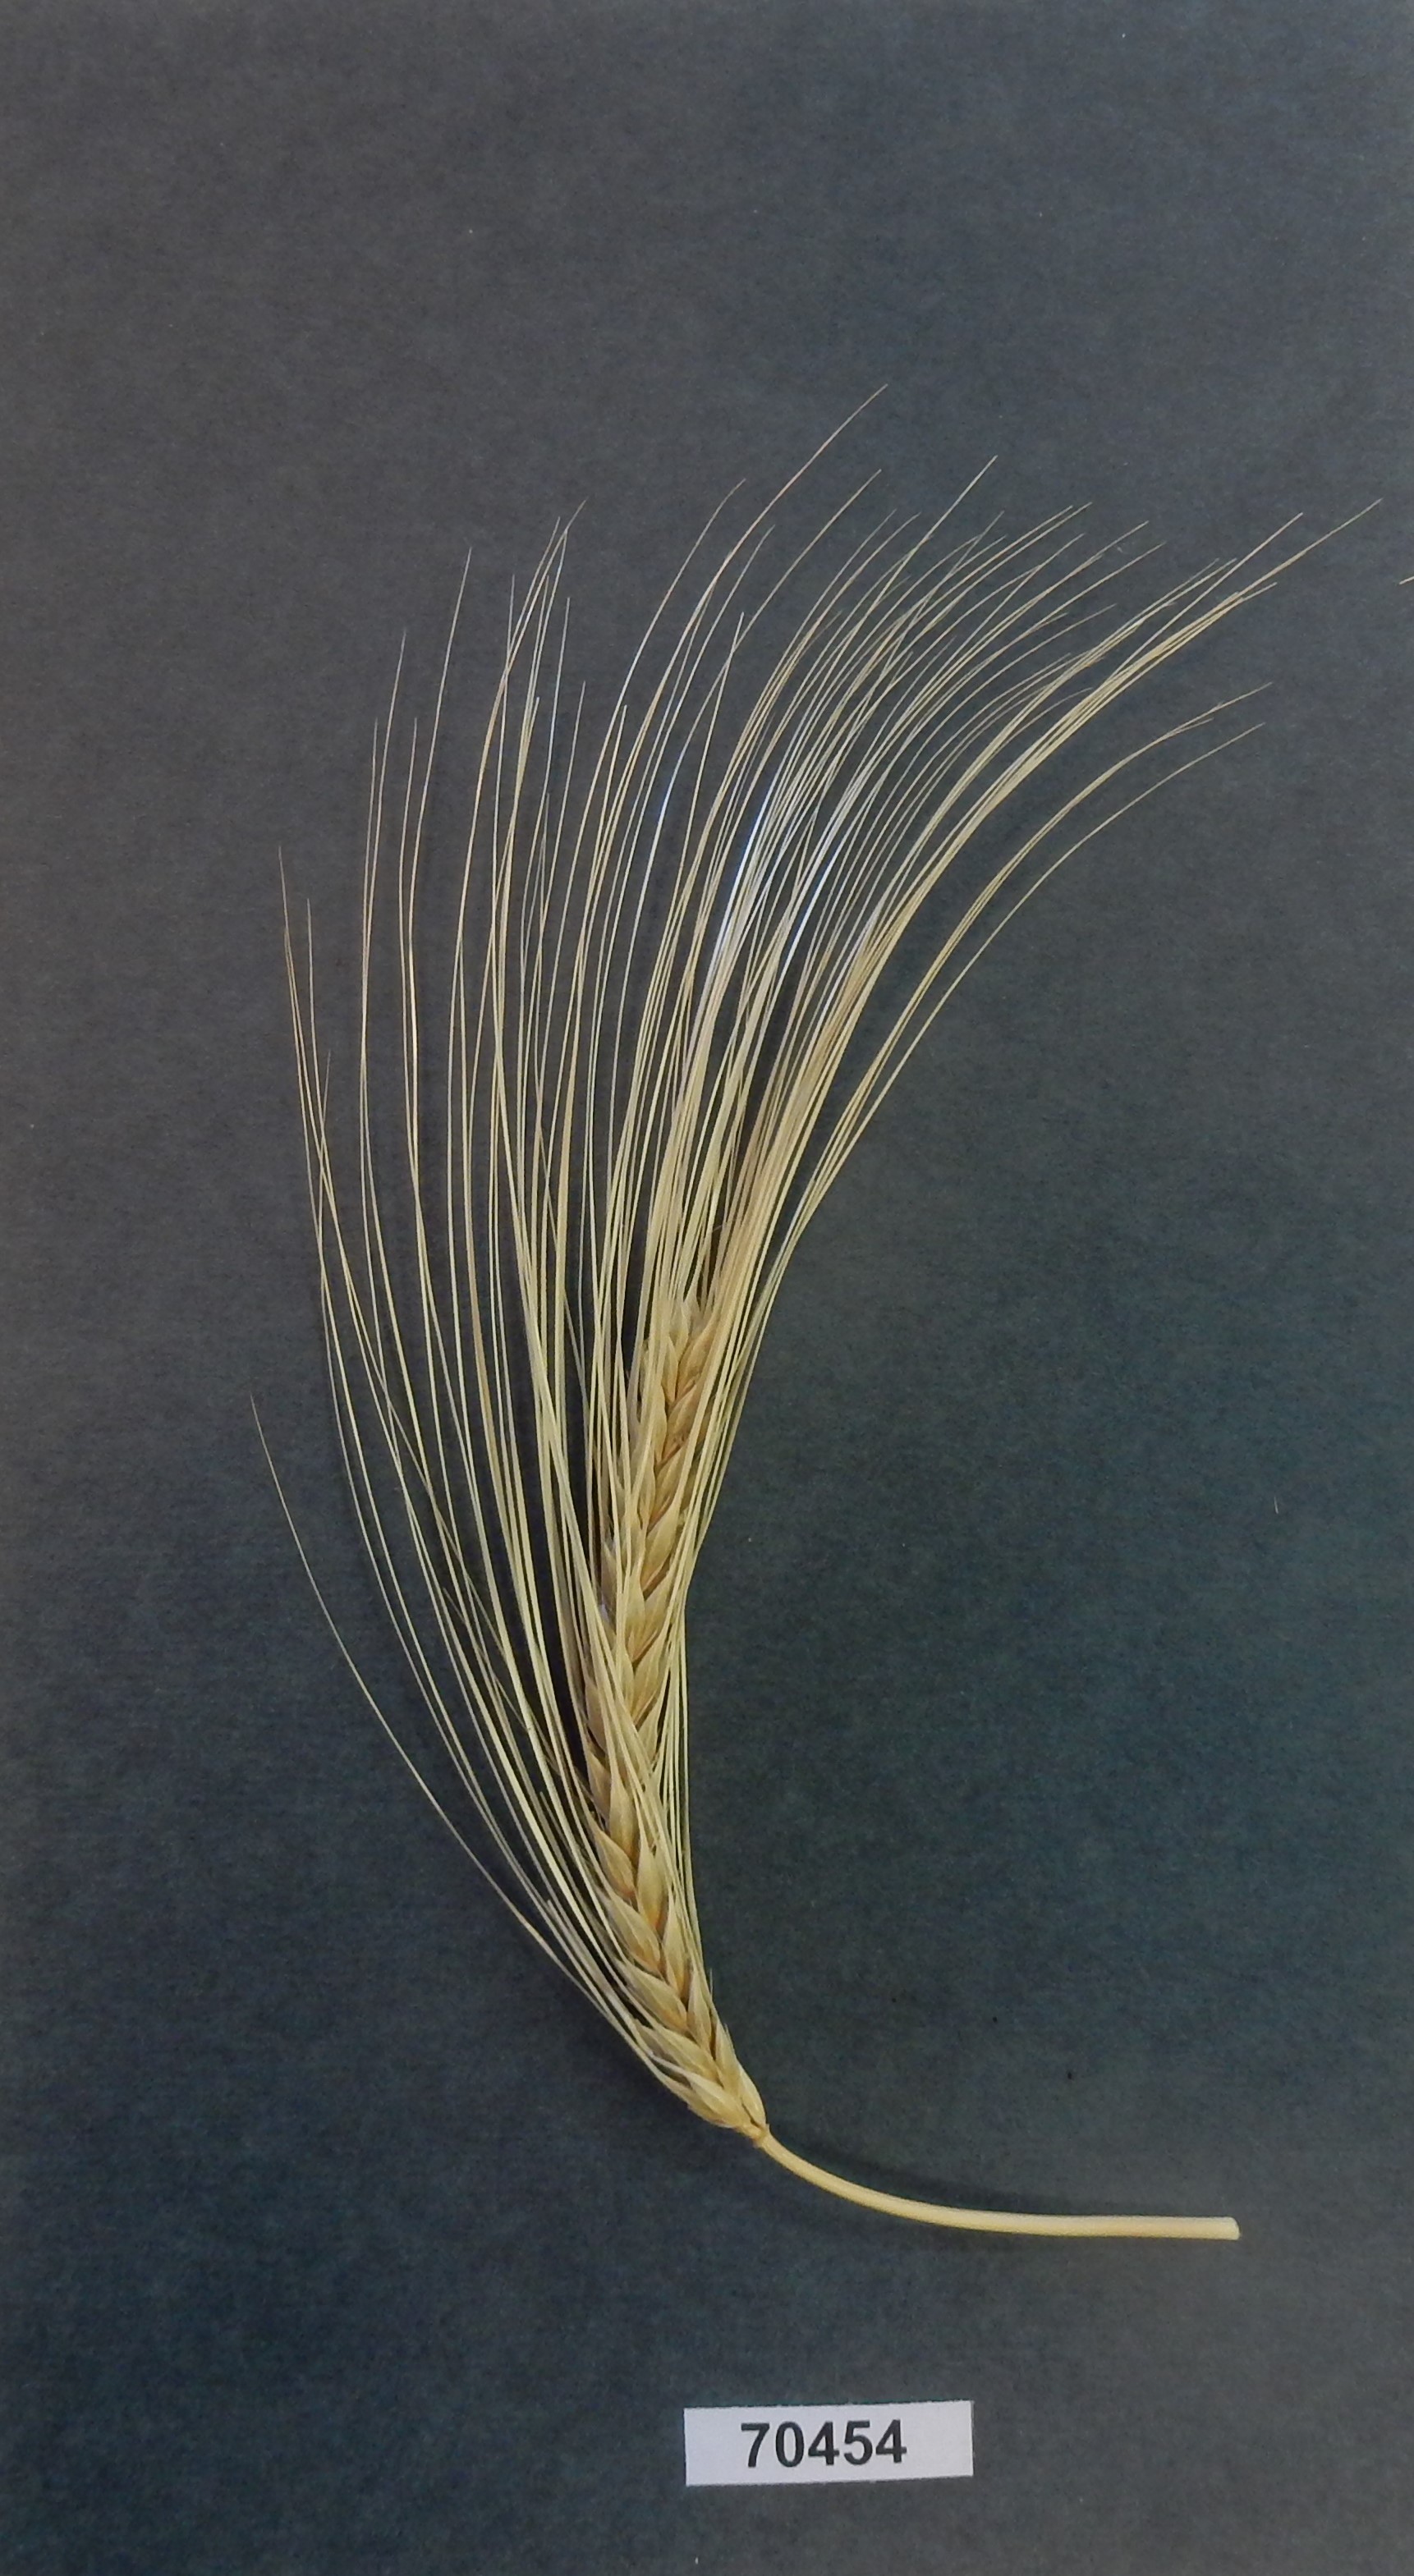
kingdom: Plantae
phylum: Tracheophyta
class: Liliopsida
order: Poales
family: Poaceae
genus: Hordeum
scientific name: Hordeum vulgare
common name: Barley
